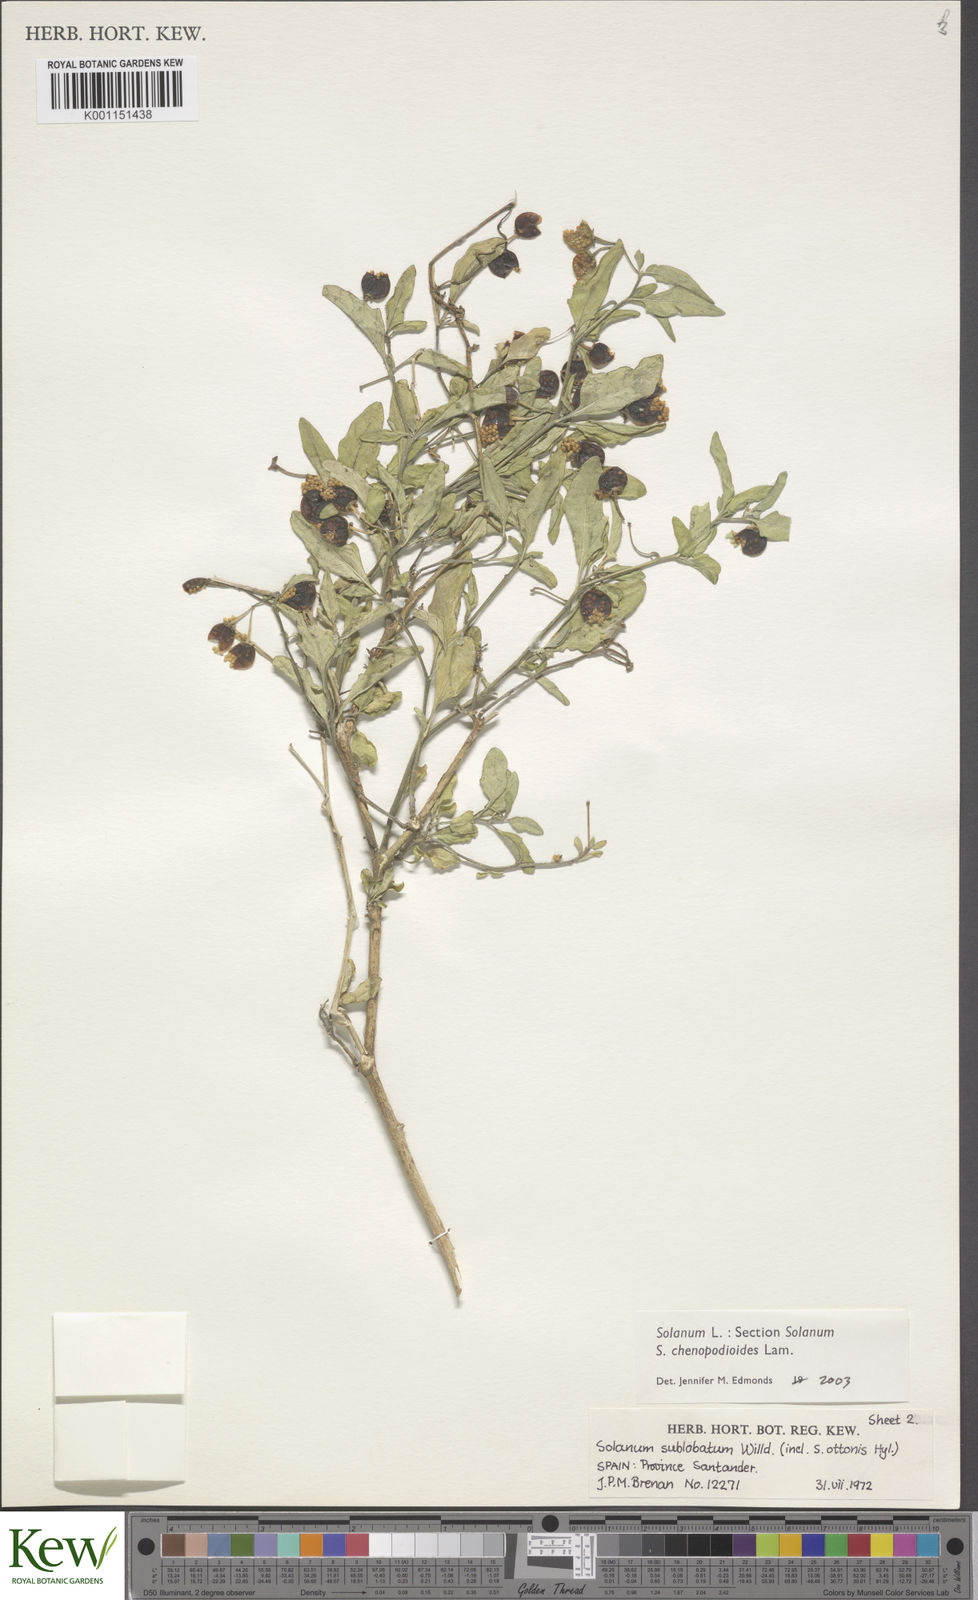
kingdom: Plantae
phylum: Tracheophyta
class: Magnoliopsida
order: Solanales
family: Solanaceae
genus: Solanum
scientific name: Solanum chenopodioides
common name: Tall nightshade
